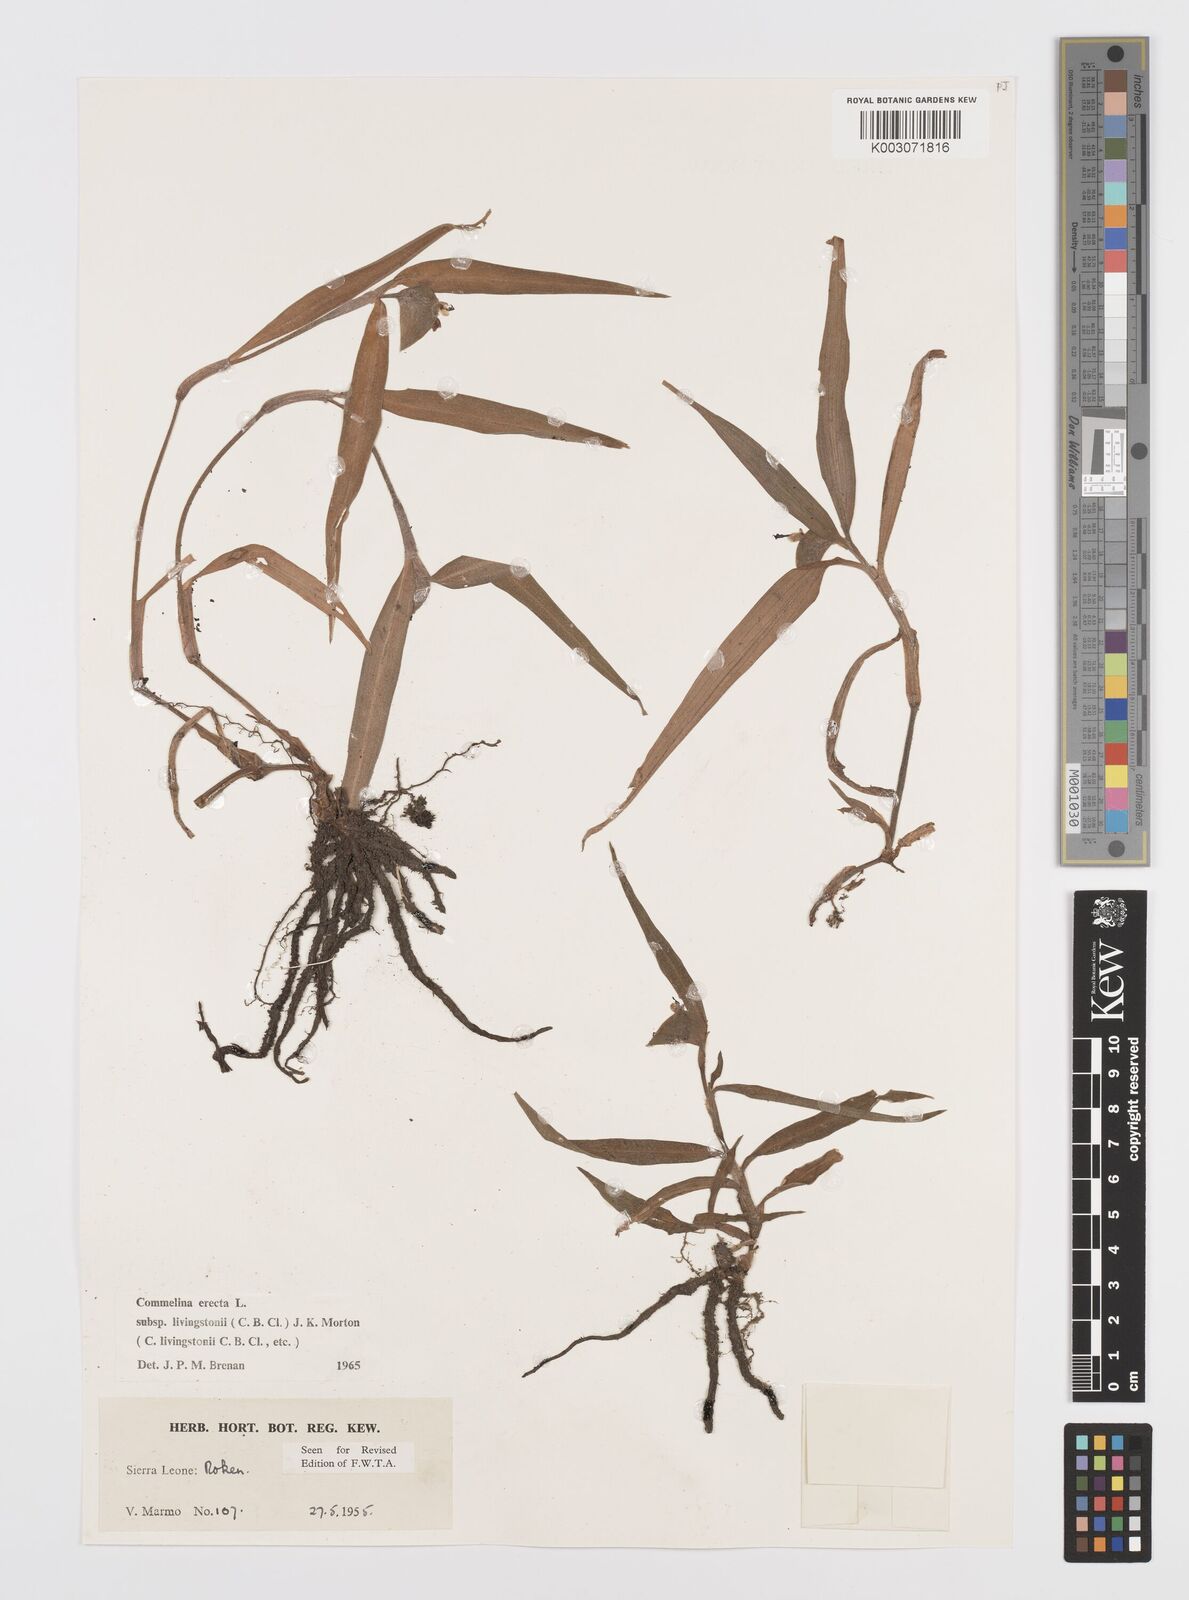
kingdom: Plantae
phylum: Tracheophyta
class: Liliopsida
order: Commelinales
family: Commelinaceae
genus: Commelina
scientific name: Commelina erecta
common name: Blousel blommetjie
